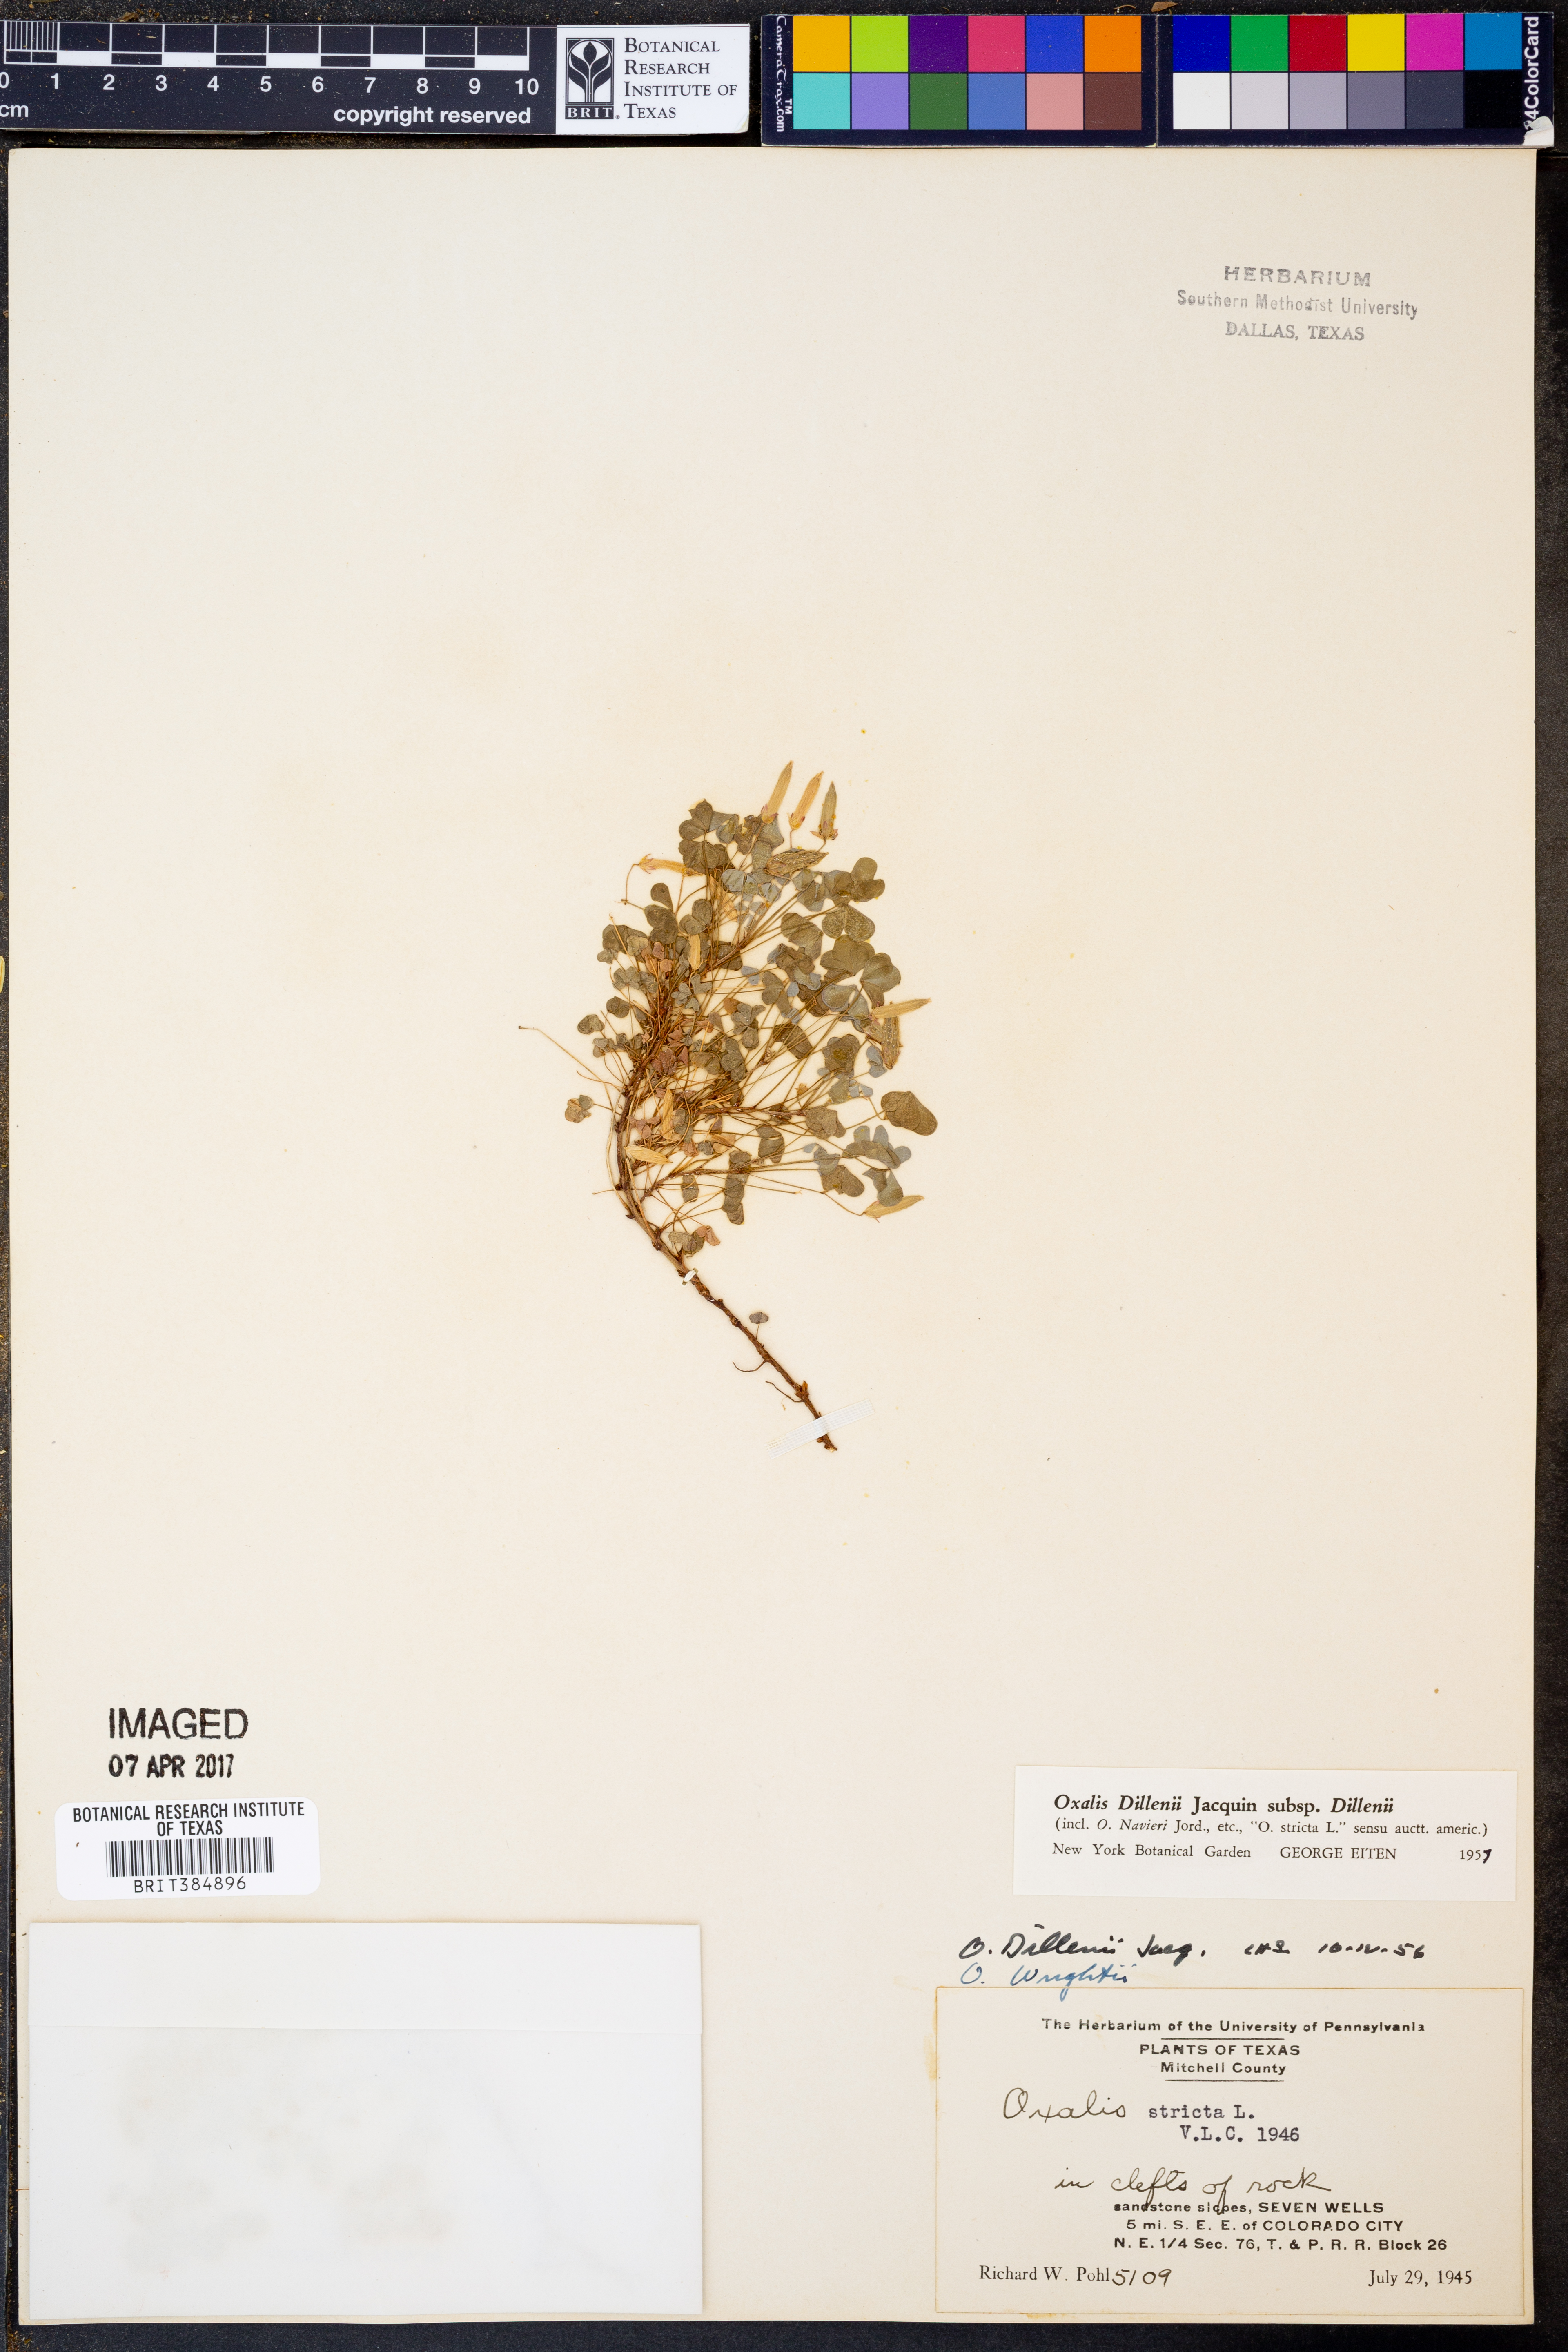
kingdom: Plantae
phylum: Tracheophyta
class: Magnoliopsida
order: Oxalidales
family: Oxalidaceae
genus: Oxalis
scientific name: Oxalis dillenii
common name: Sussex yellow-sorrel
